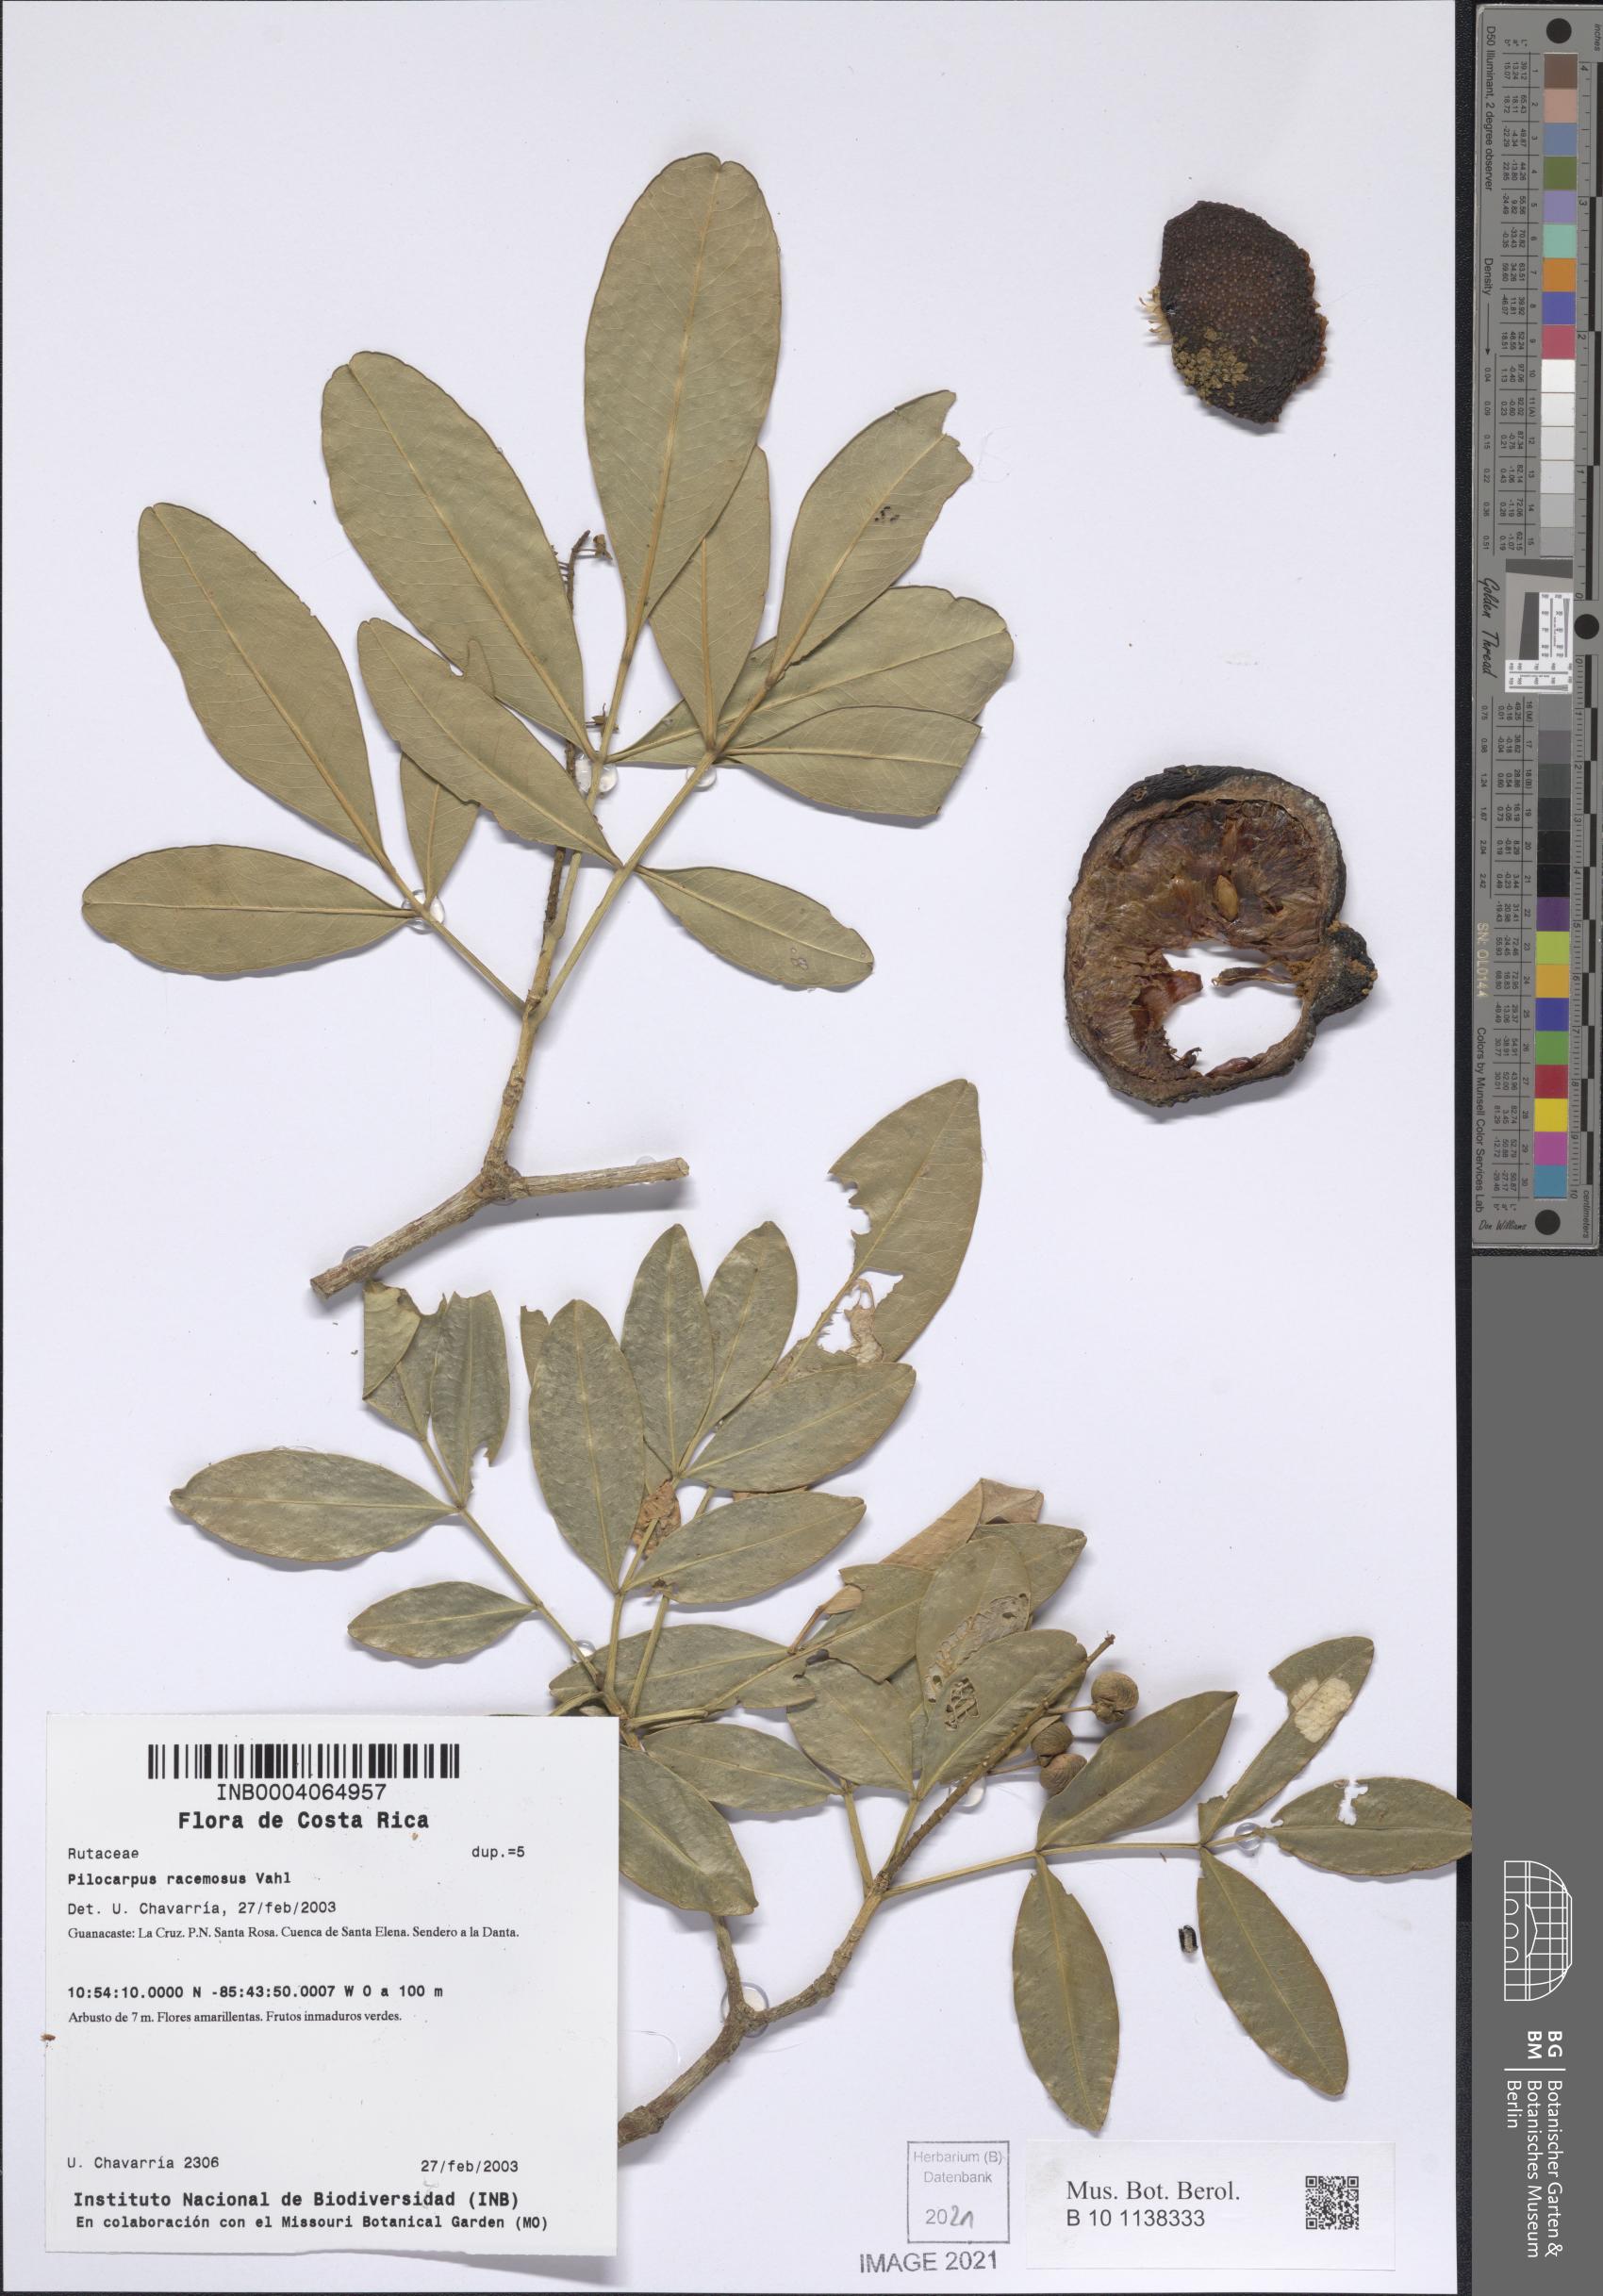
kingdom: Plantae
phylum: Tracheophyta
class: Magnoliopsida
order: Sapindales
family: Rutaceae
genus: Pilocarpus
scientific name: Pilocarpus racemosus
